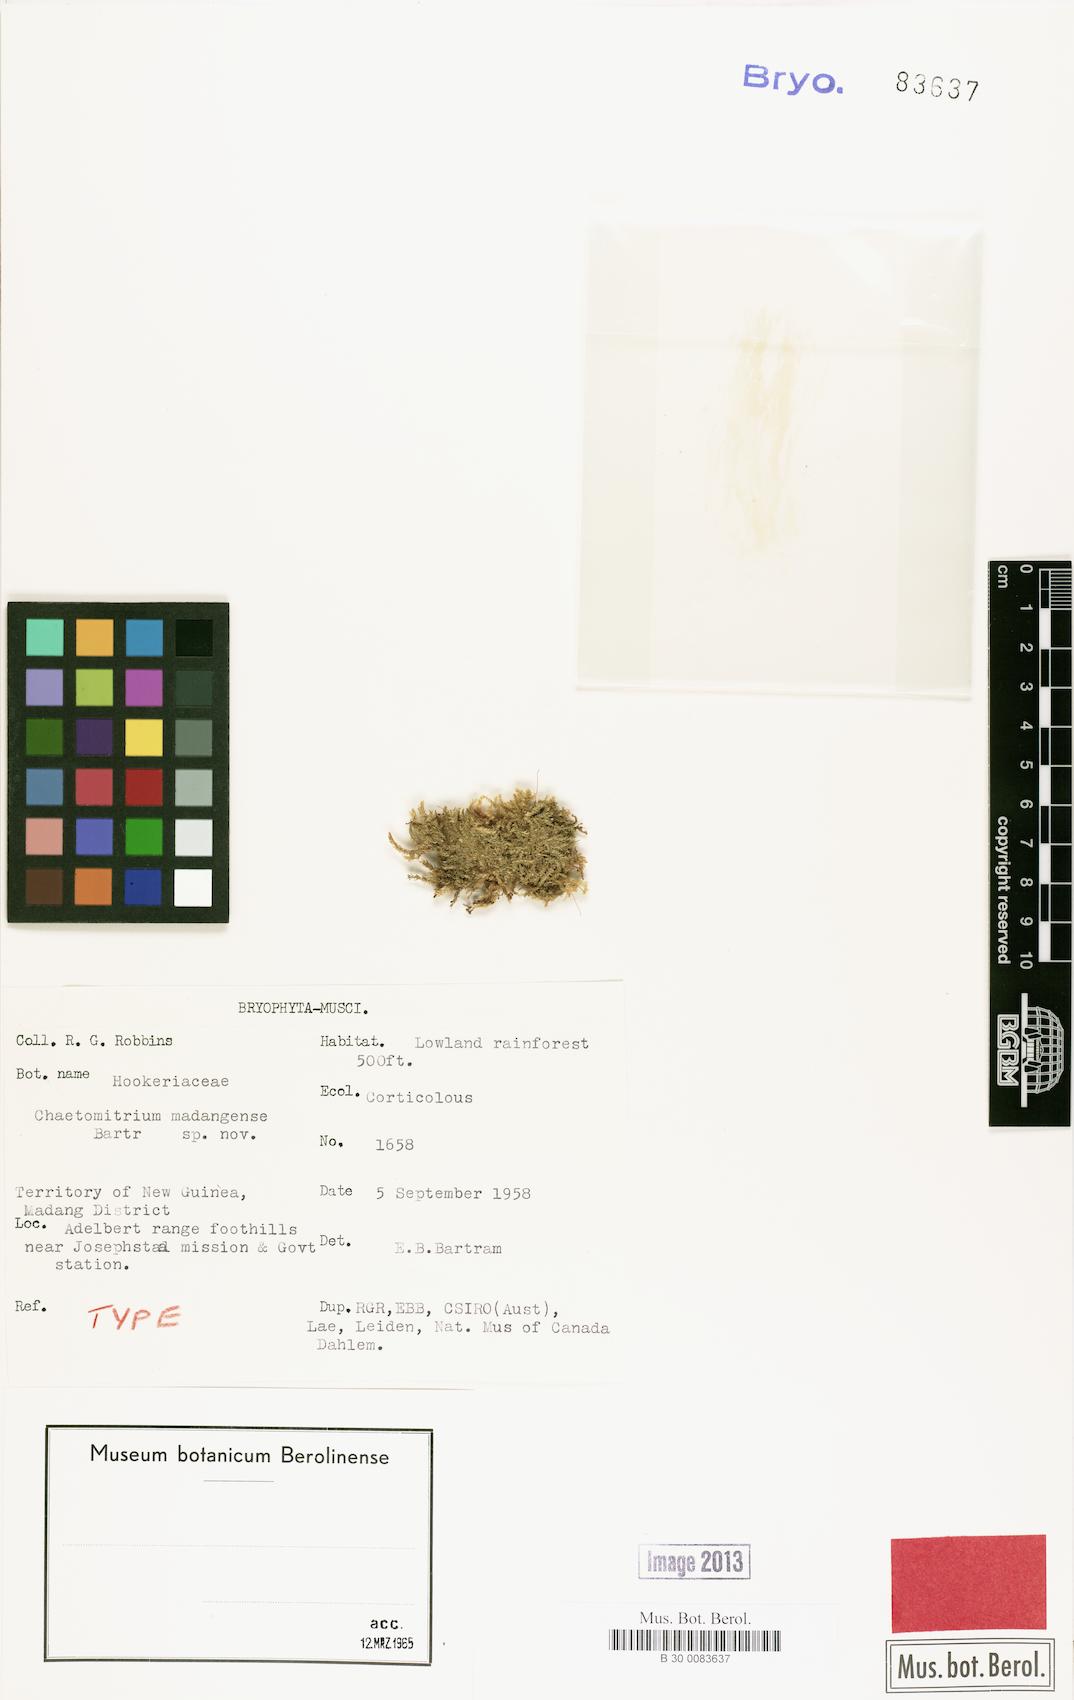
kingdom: Plantae
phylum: Bryophyta
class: Bryopsida
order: Hypnales
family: Symphyodontaceae
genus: Chaetomitrium
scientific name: Chaetomitrium madangense
